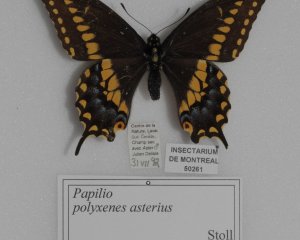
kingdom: Animalia
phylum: Arthropoda
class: Insecta
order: Lepidoptera
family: Papilionidae
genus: Papilio
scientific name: Papilio polyxenes
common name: Black Swallowtail
